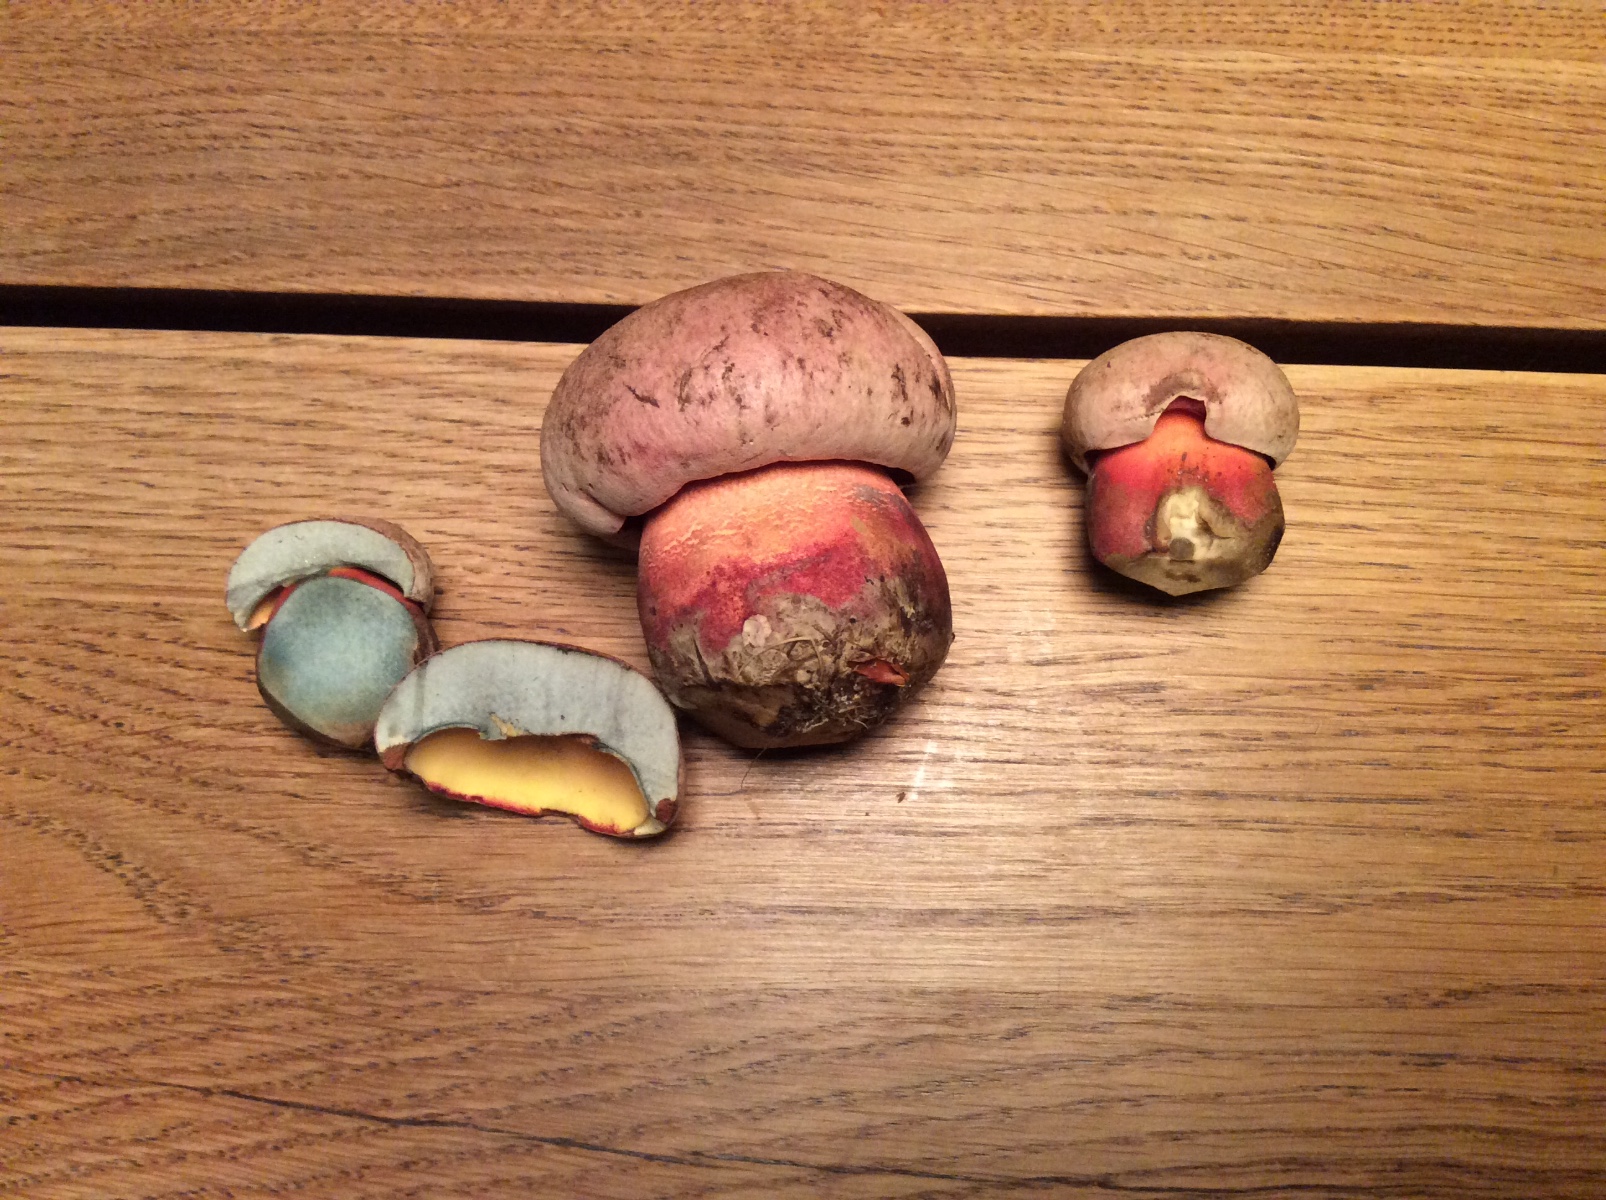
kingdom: Fungi
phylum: Basidiomycota
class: Agaricomycetes
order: Boletales
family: Boletaceae
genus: Rubroboletus
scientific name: Rubroboletus legaliae
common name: djævle-rørhat
